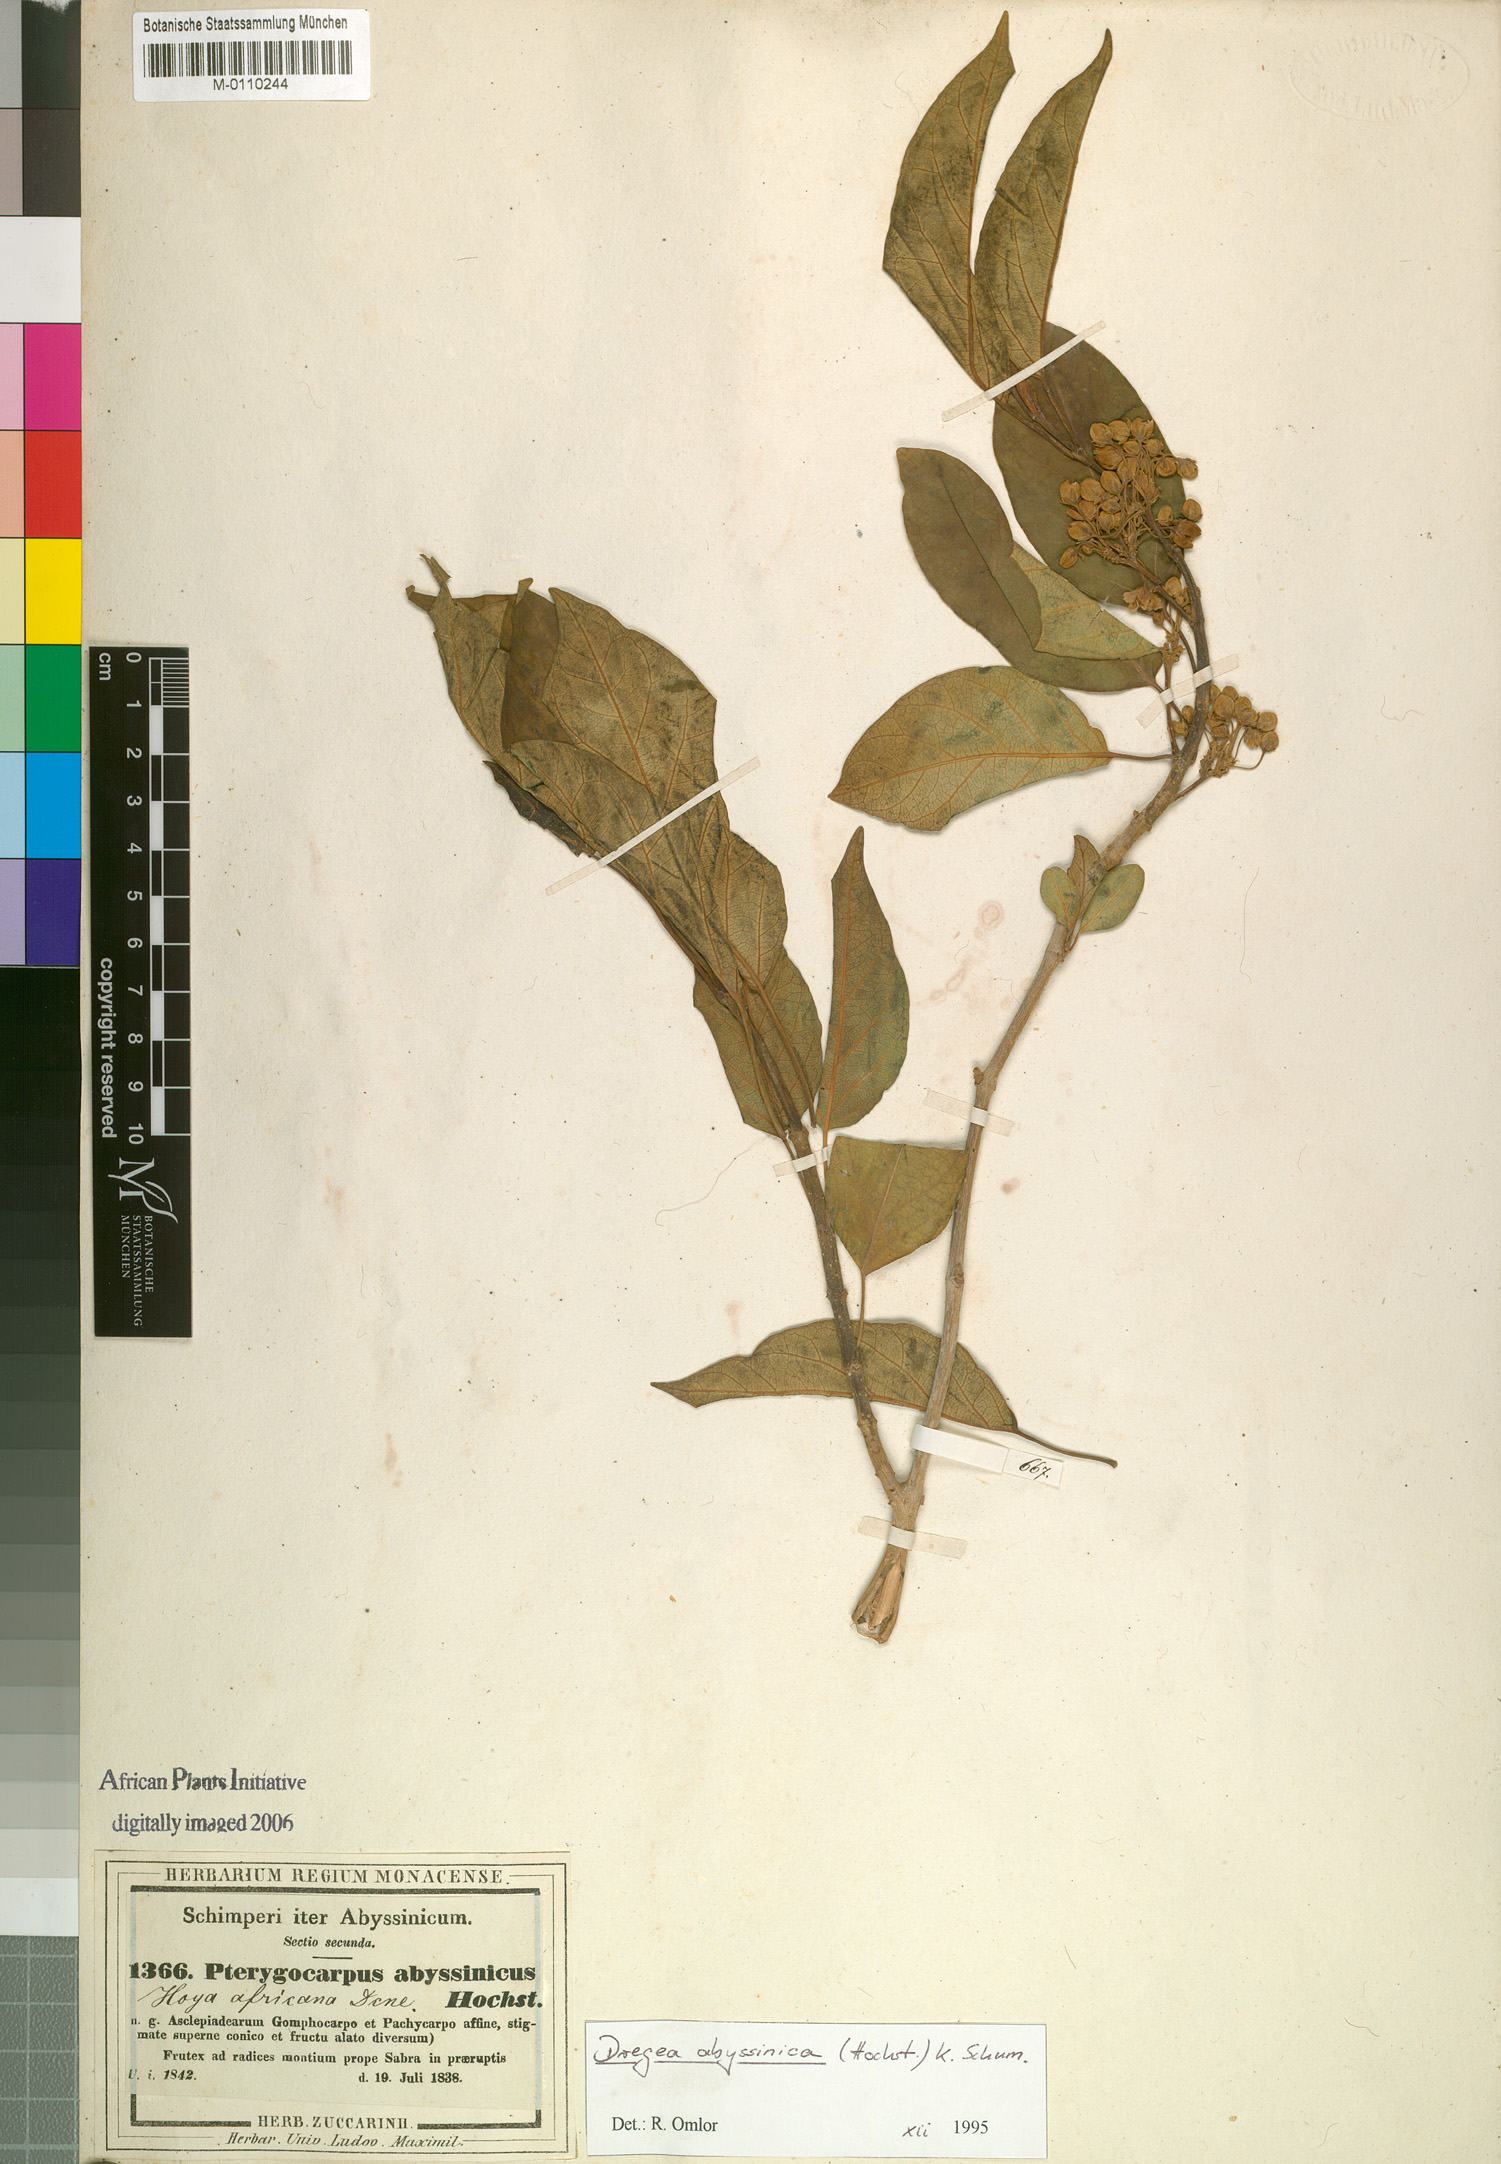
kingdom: Plantae
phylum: Tracheophyta
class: Magnoliopsida
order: Gentianales
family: Apocynaceae
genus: Stephanotis
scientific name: Stephanotis abyssinica
